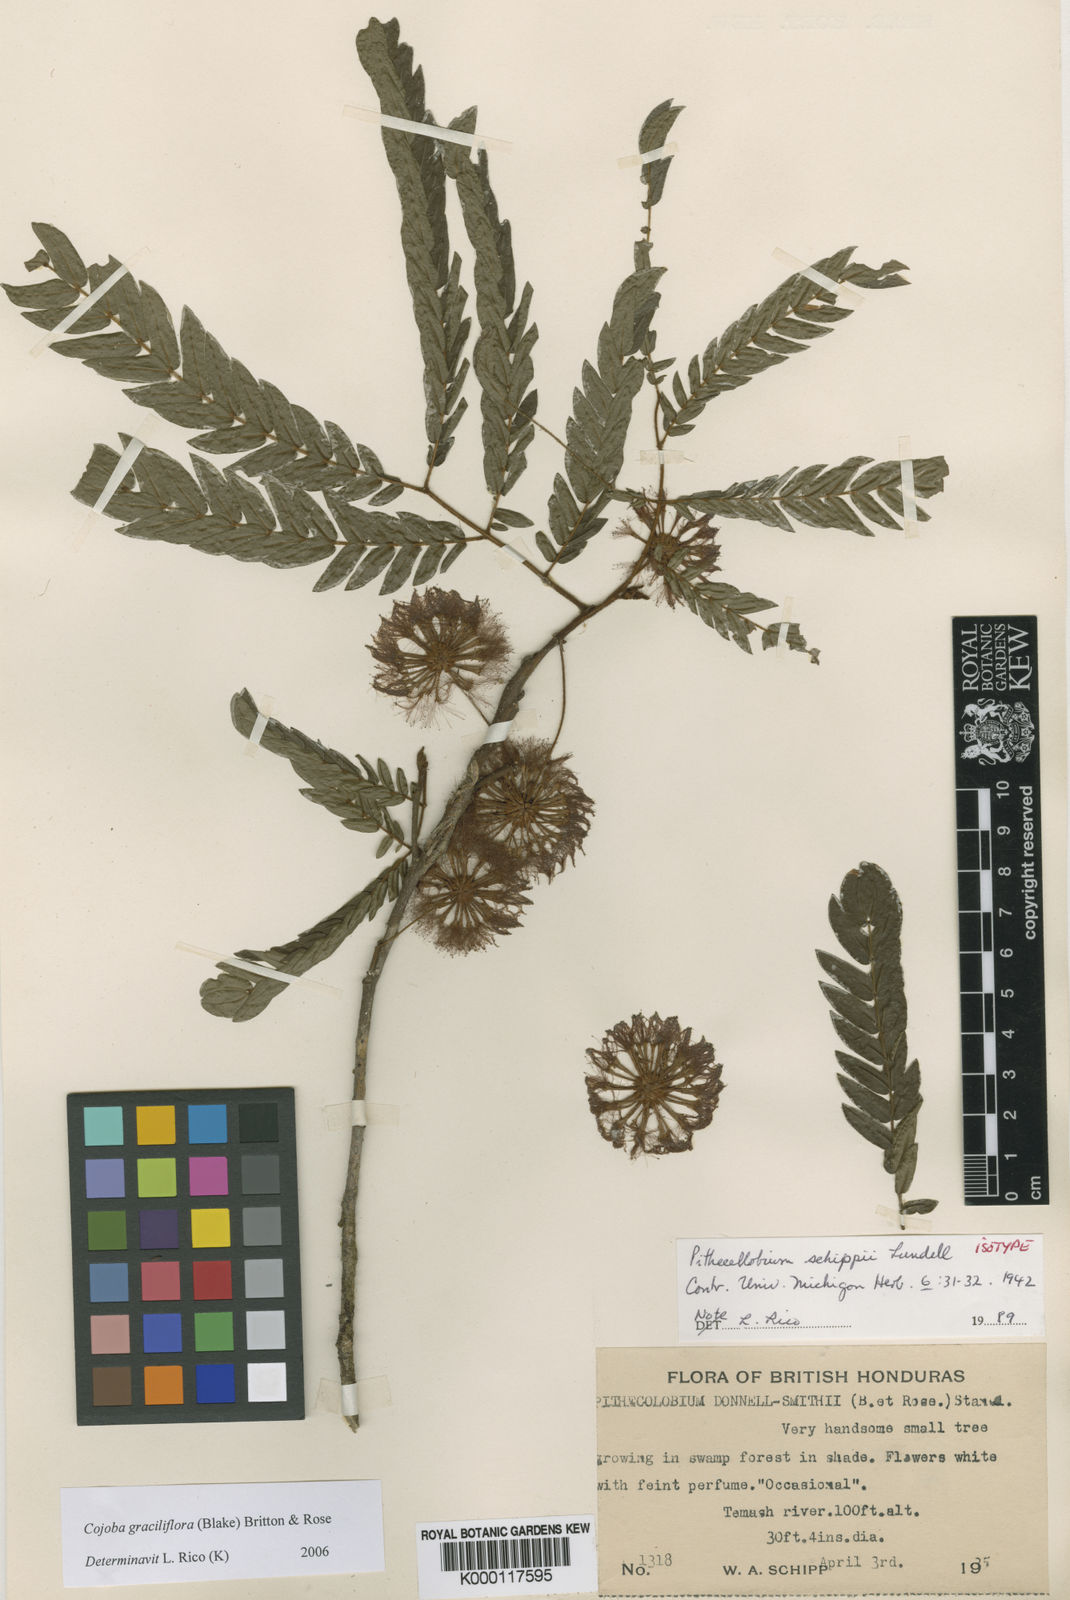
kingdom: Plantae
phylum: Tracheophyta
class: Magnoliopsida
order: Fabales
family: Fabaceae
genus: Cojoba
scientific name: Cojoba
